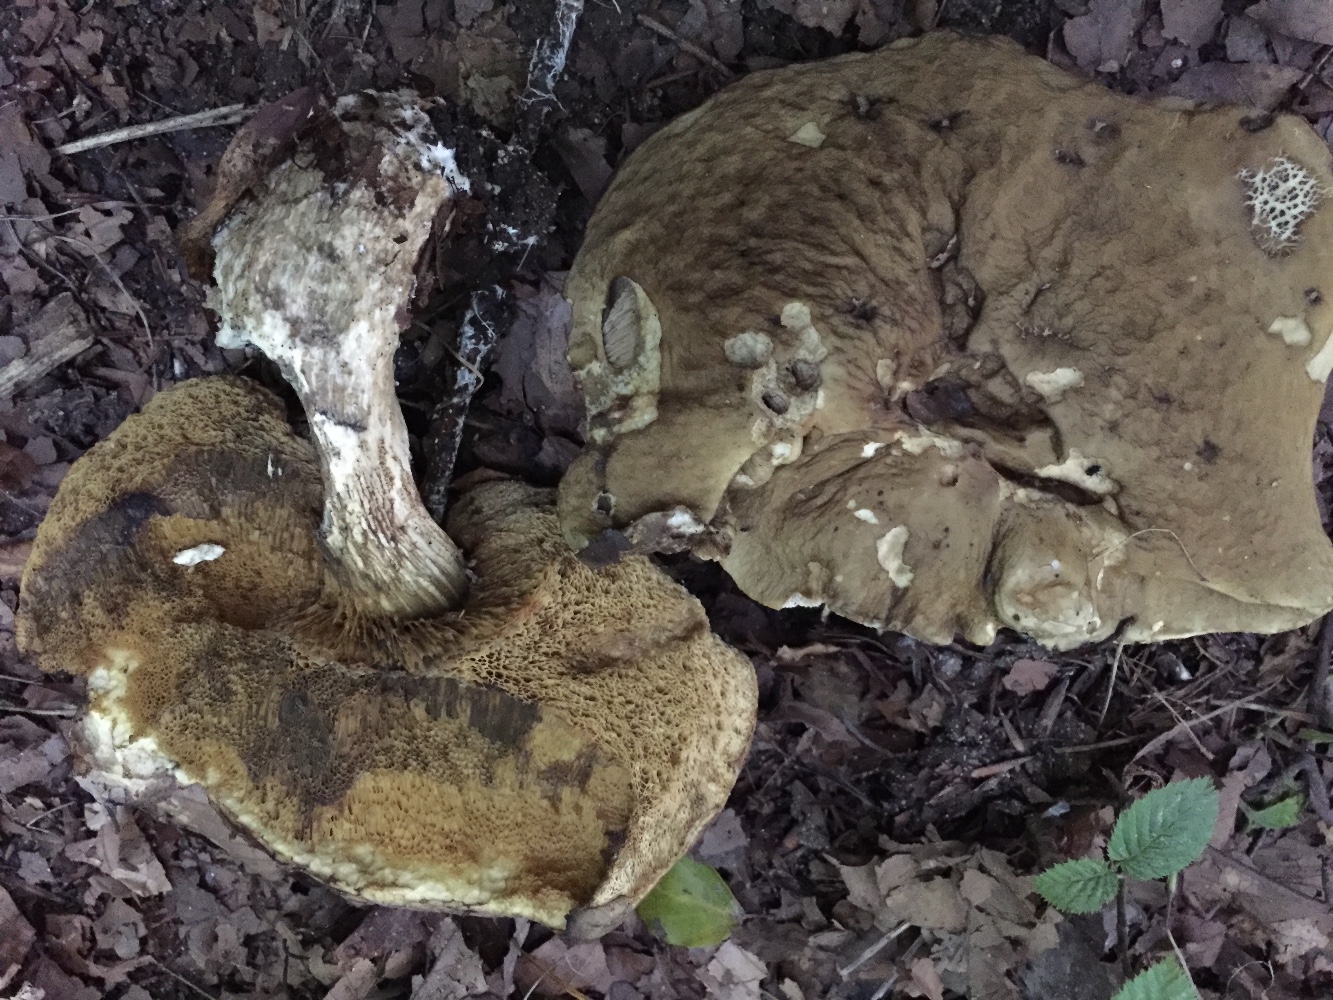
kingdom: Fungi
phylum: Basidiomycota
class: Agaricomycetes
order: Boletales
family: Boletaceae
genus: Leccinellum
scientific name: Leccinellum pseudoscabrum
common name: avnbøg-skælrørhat
